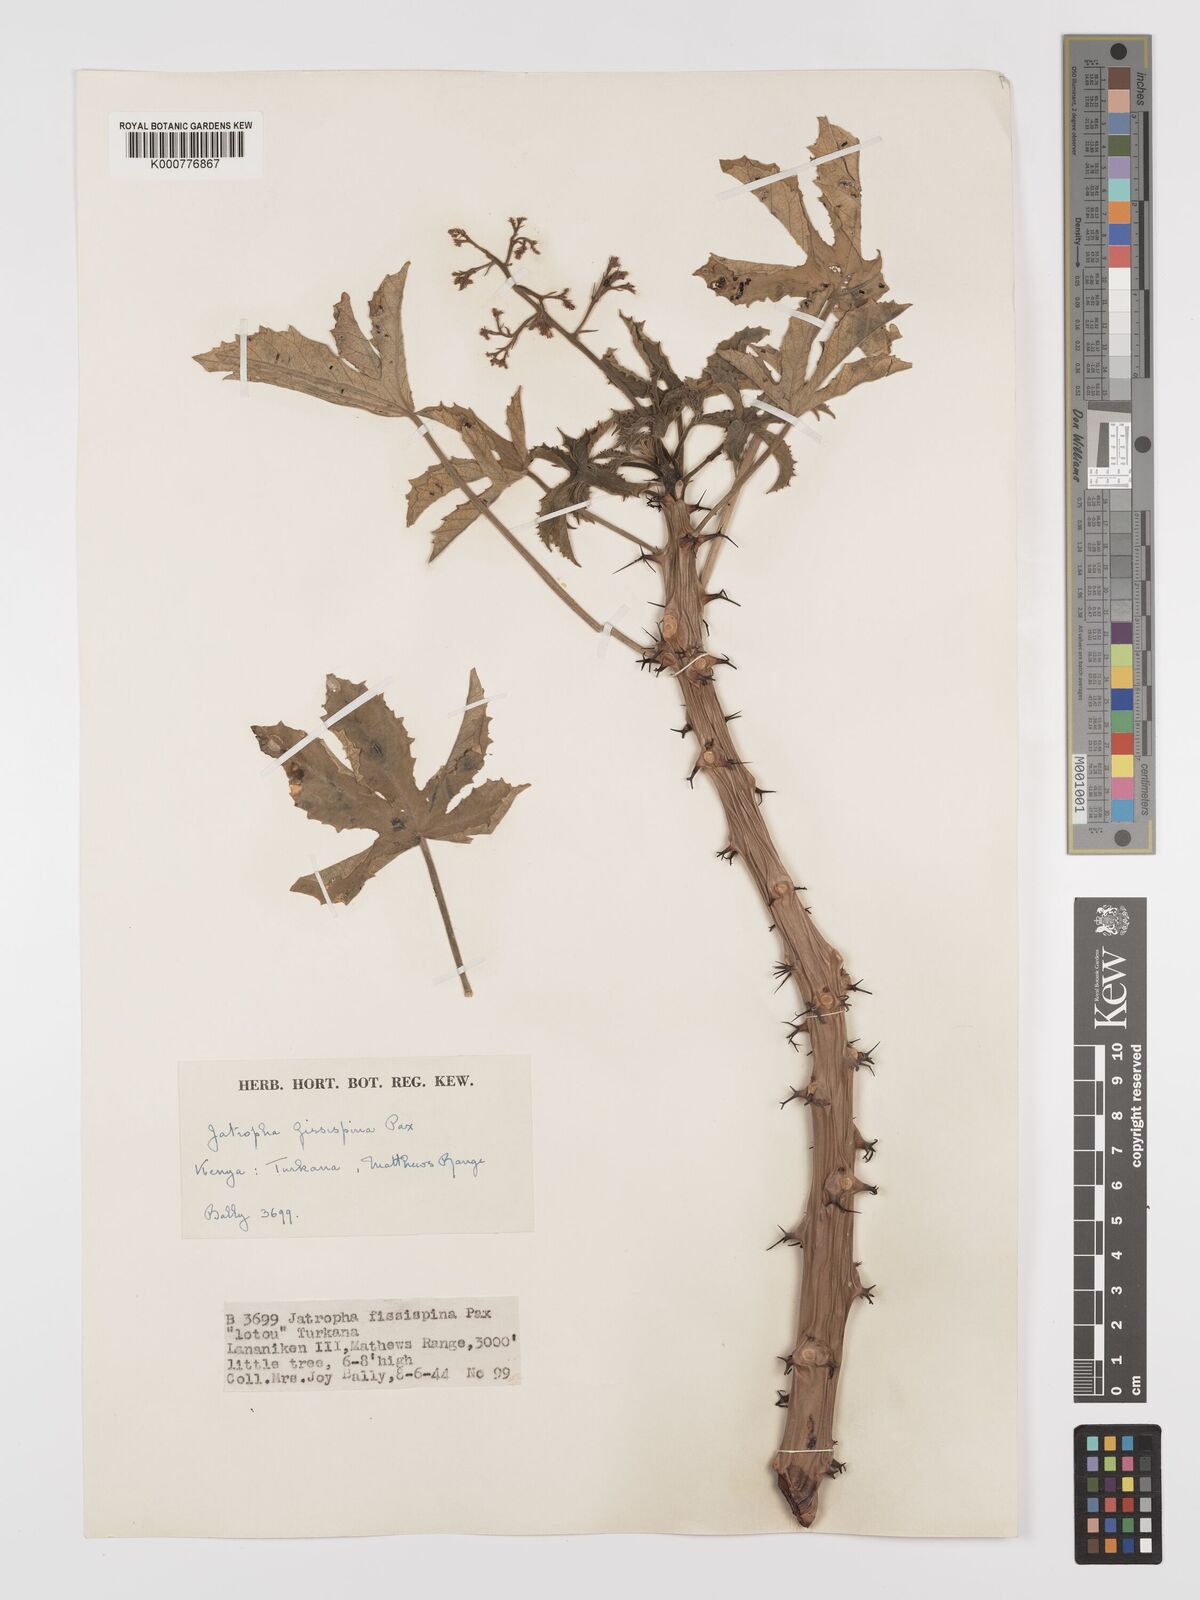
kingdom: Plantae
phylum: Tracheophyta
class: Magnoliopsida
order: Malpighiales
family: Euphorbiaceae
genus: Jatropha
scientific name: Jatropha ellenbeckii
